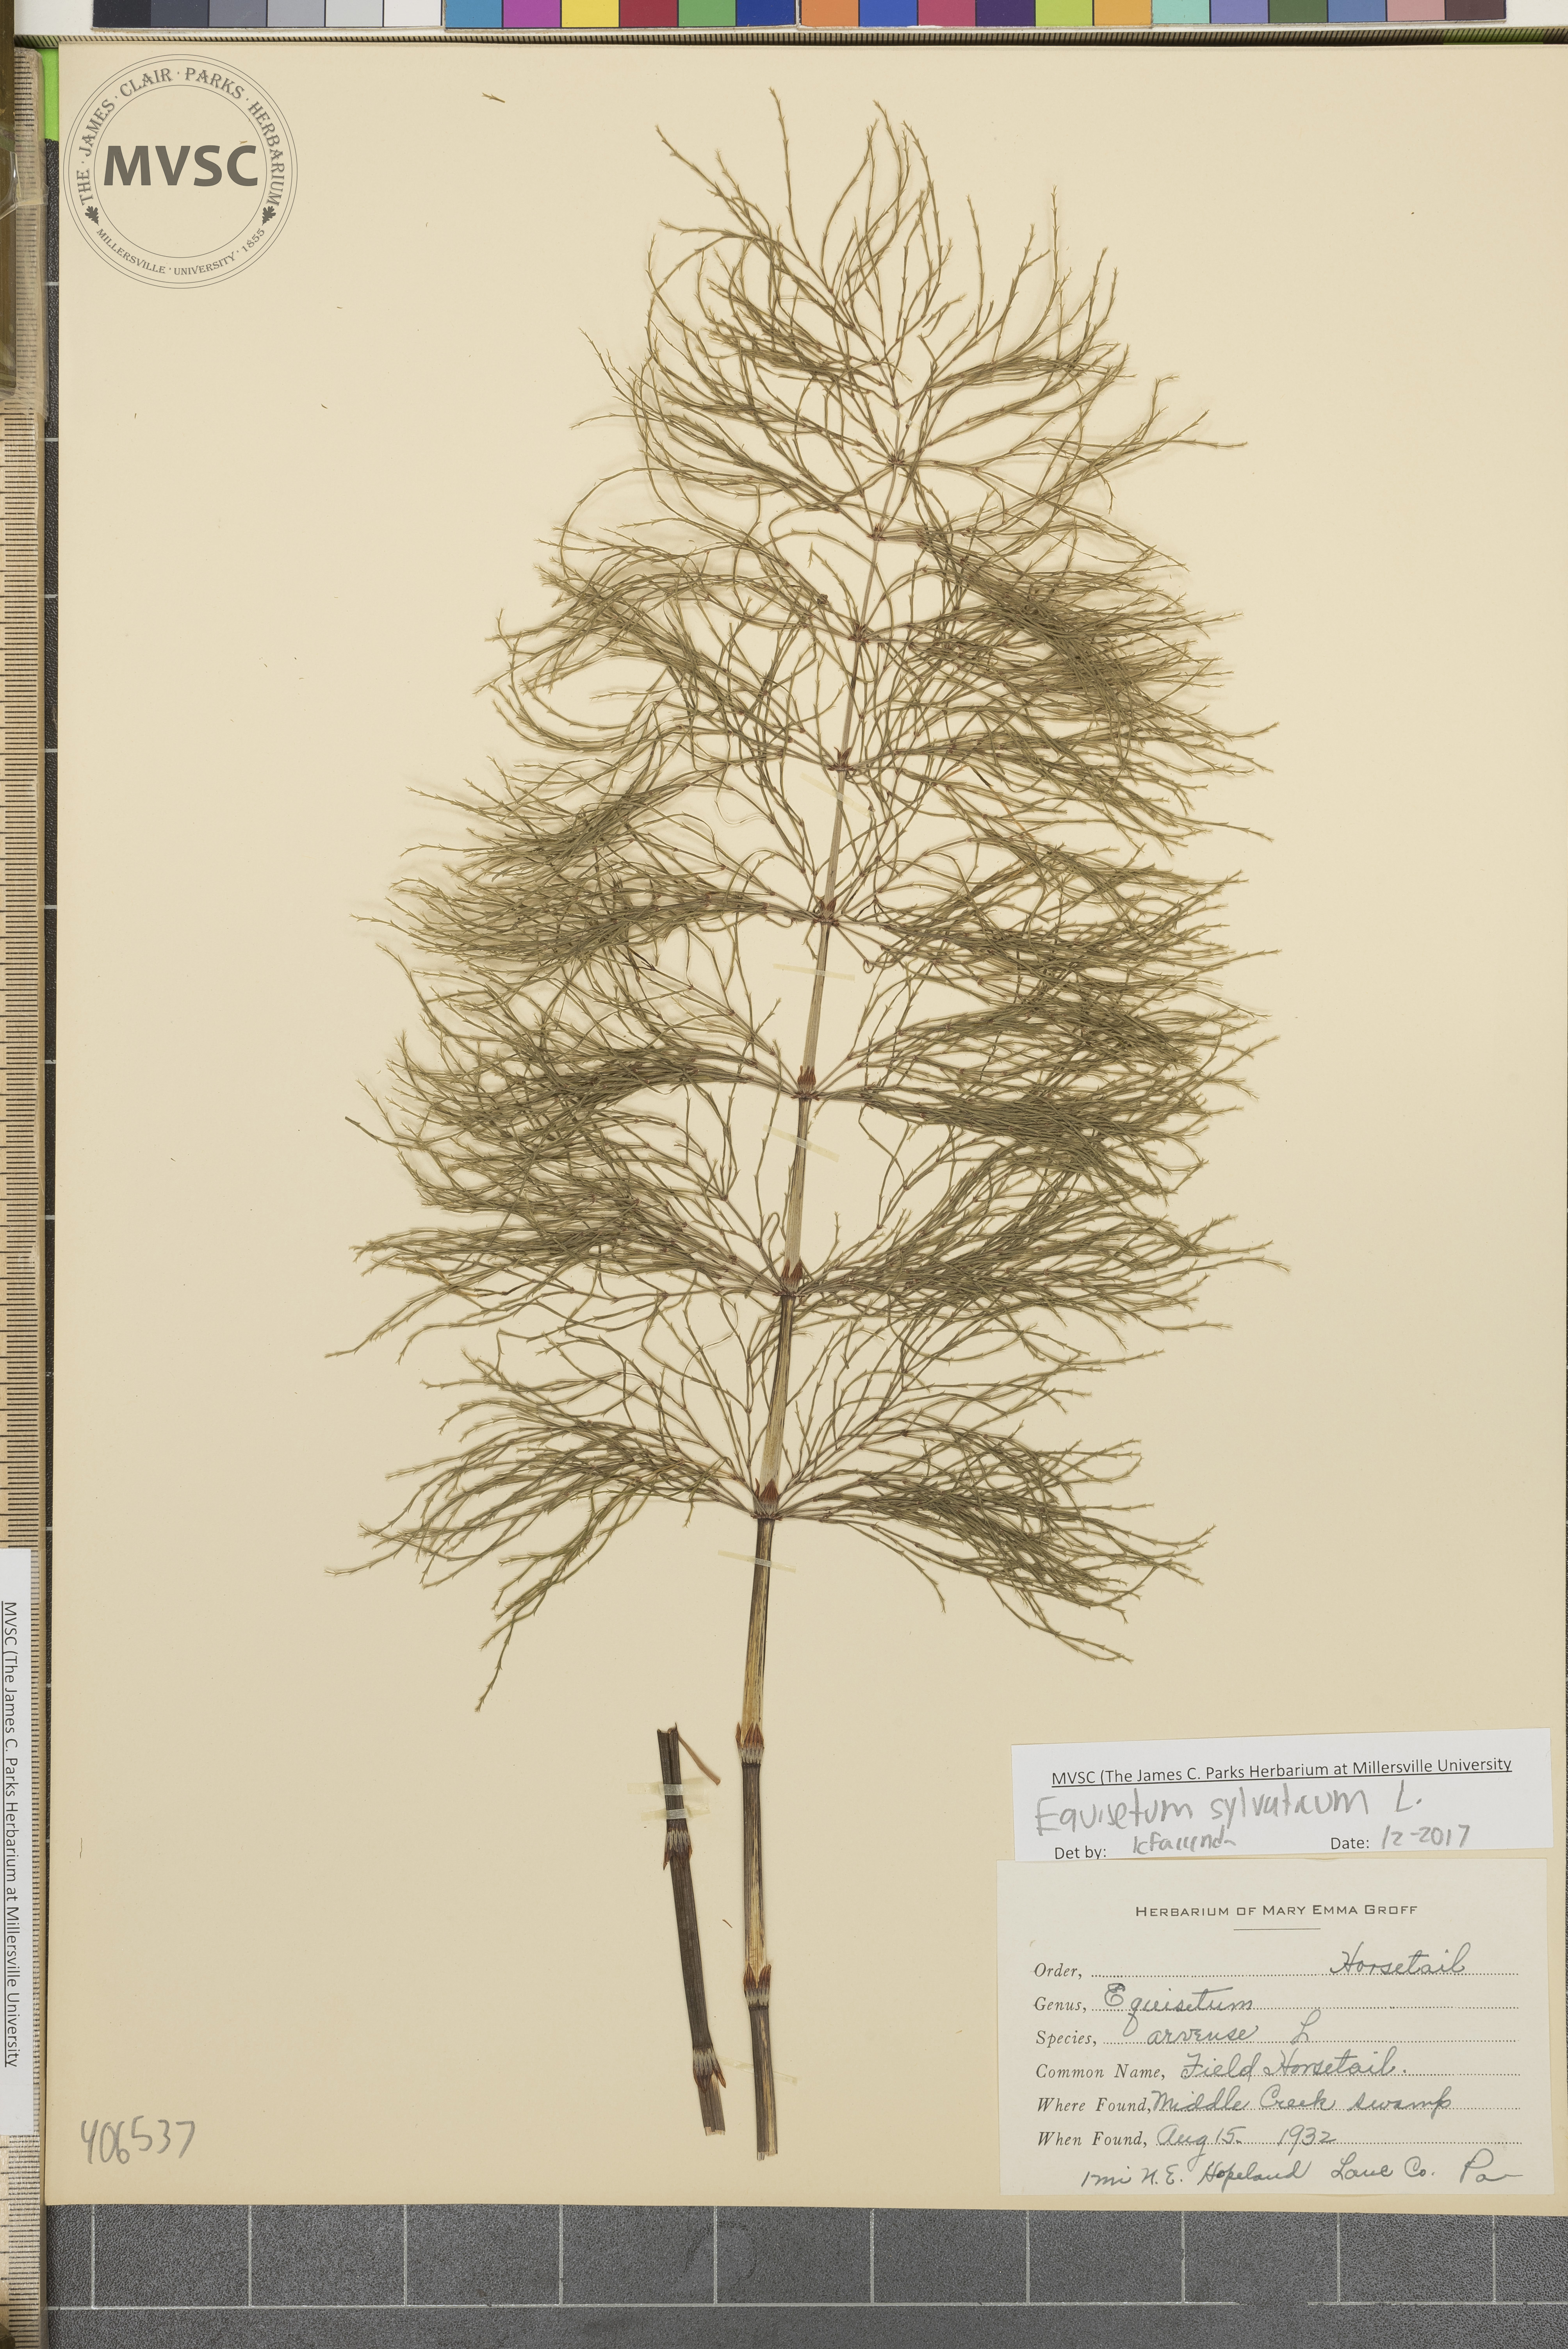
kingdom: Plantae
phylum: Tracheophyta
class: Polypodiopsida
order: Equisetales
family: Equisetaceae
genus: Equisetum
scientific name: Equisetum sylvaticum
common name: Wood horsetail
